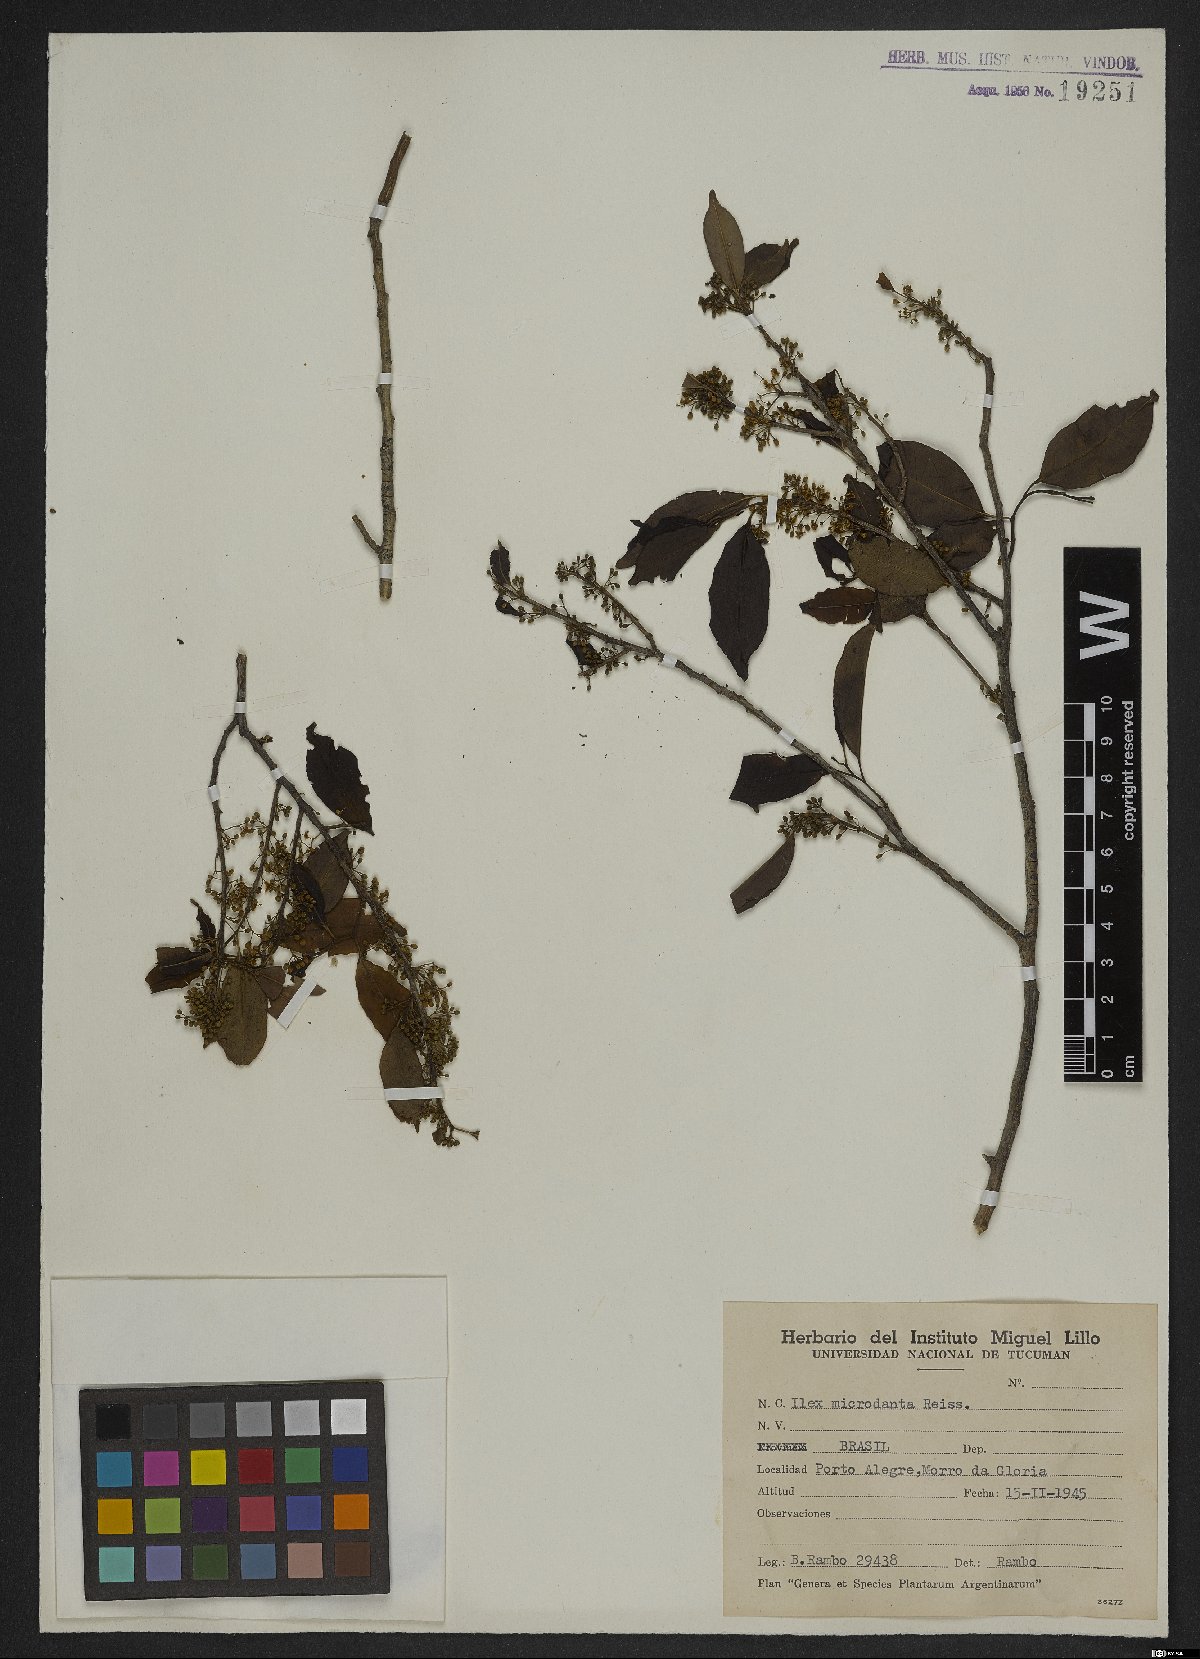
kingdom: Plantae
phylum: Tracheophyta
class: Magnoliopsida
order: Aquifoliales
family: Aquifoliaceae
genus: Ilex
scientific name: Ilex microdonta
